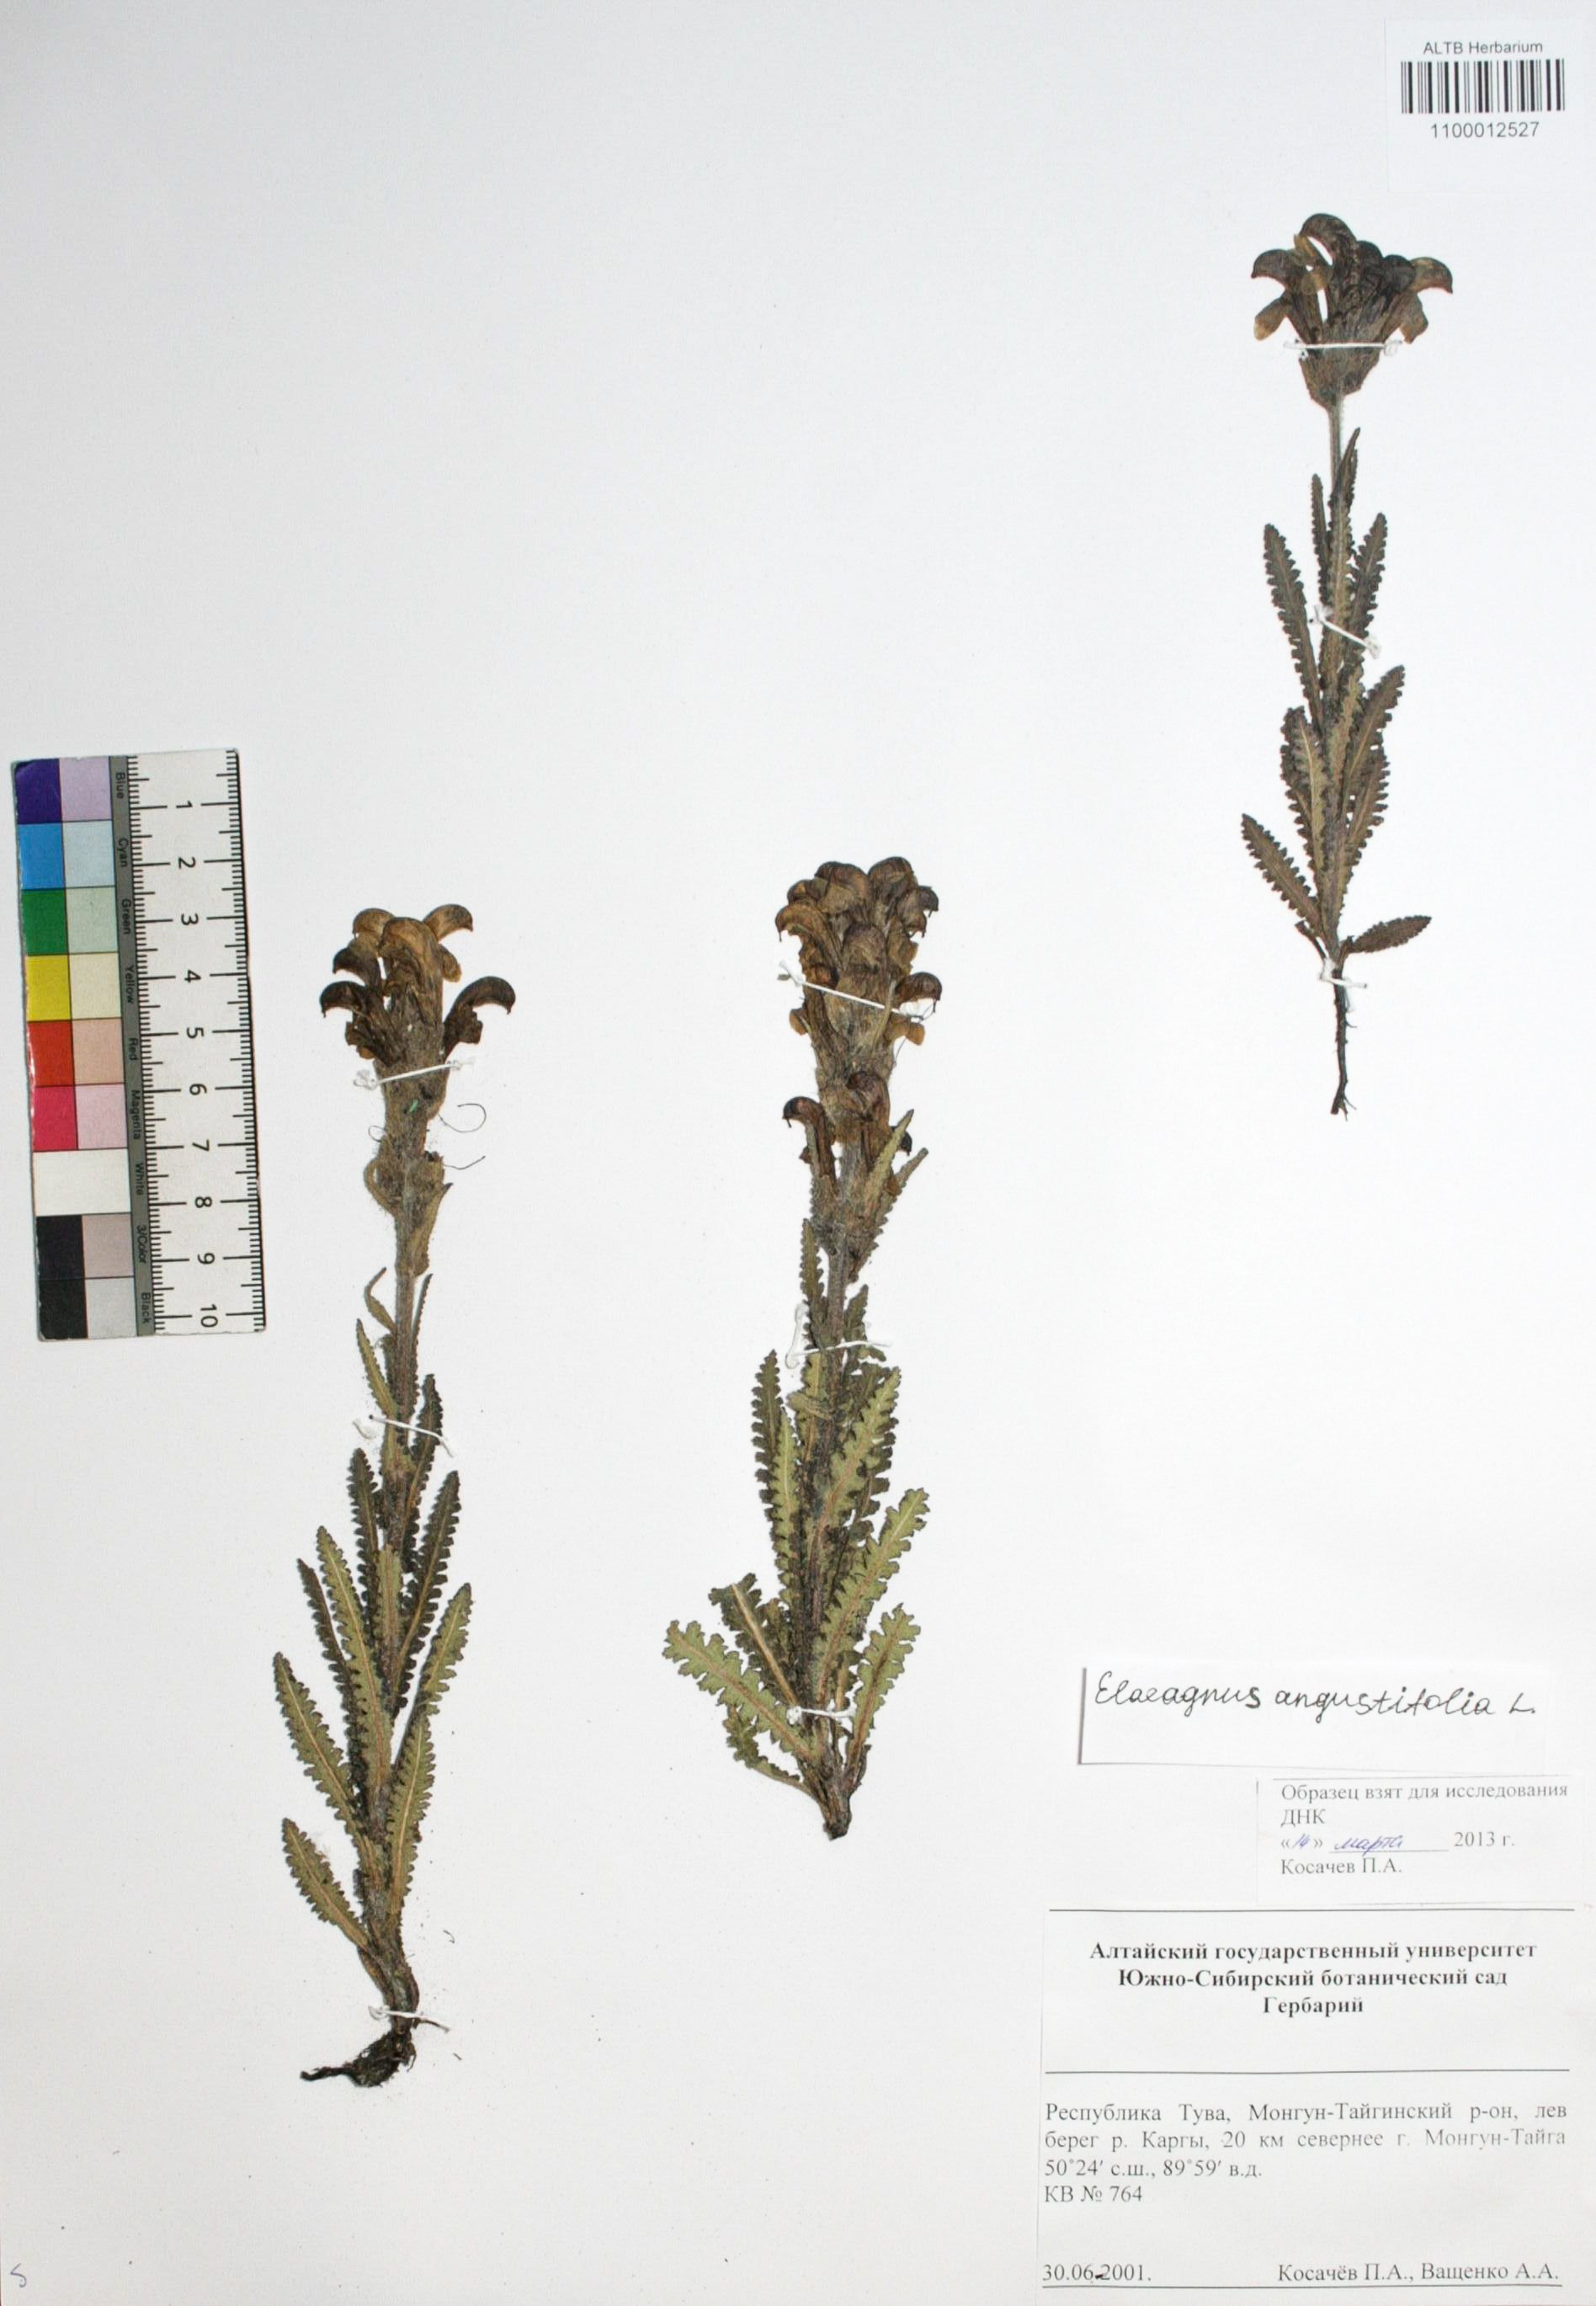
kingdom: Plantae
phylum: Tracheophyta
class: Magnoliopsida
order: Rosales
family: Elaeagnaceae
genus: Elaeagnus
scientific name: Elaeagnus angustifolia
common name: Russian olive
